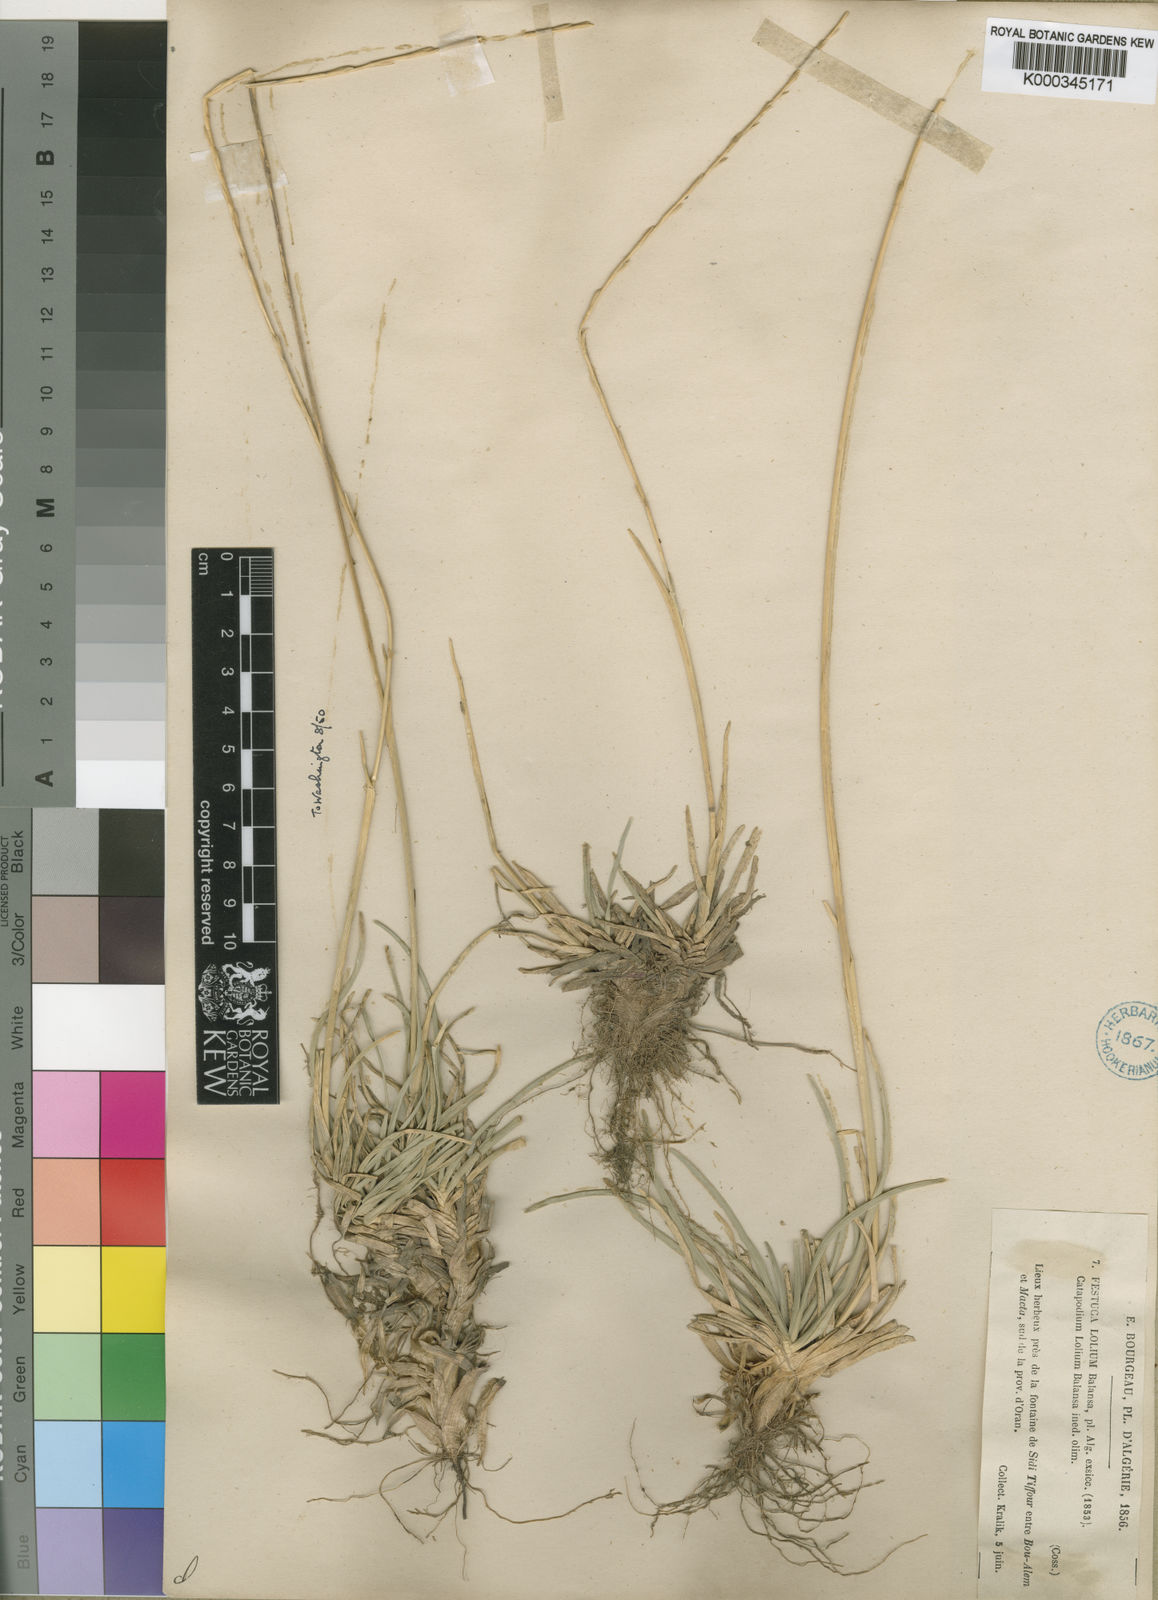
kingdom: Plantae
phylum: Tracheophyta
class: Liliopsida
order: Poales
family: Poaceae
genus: Agropyropsis
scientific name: Agropyropsis lolium
